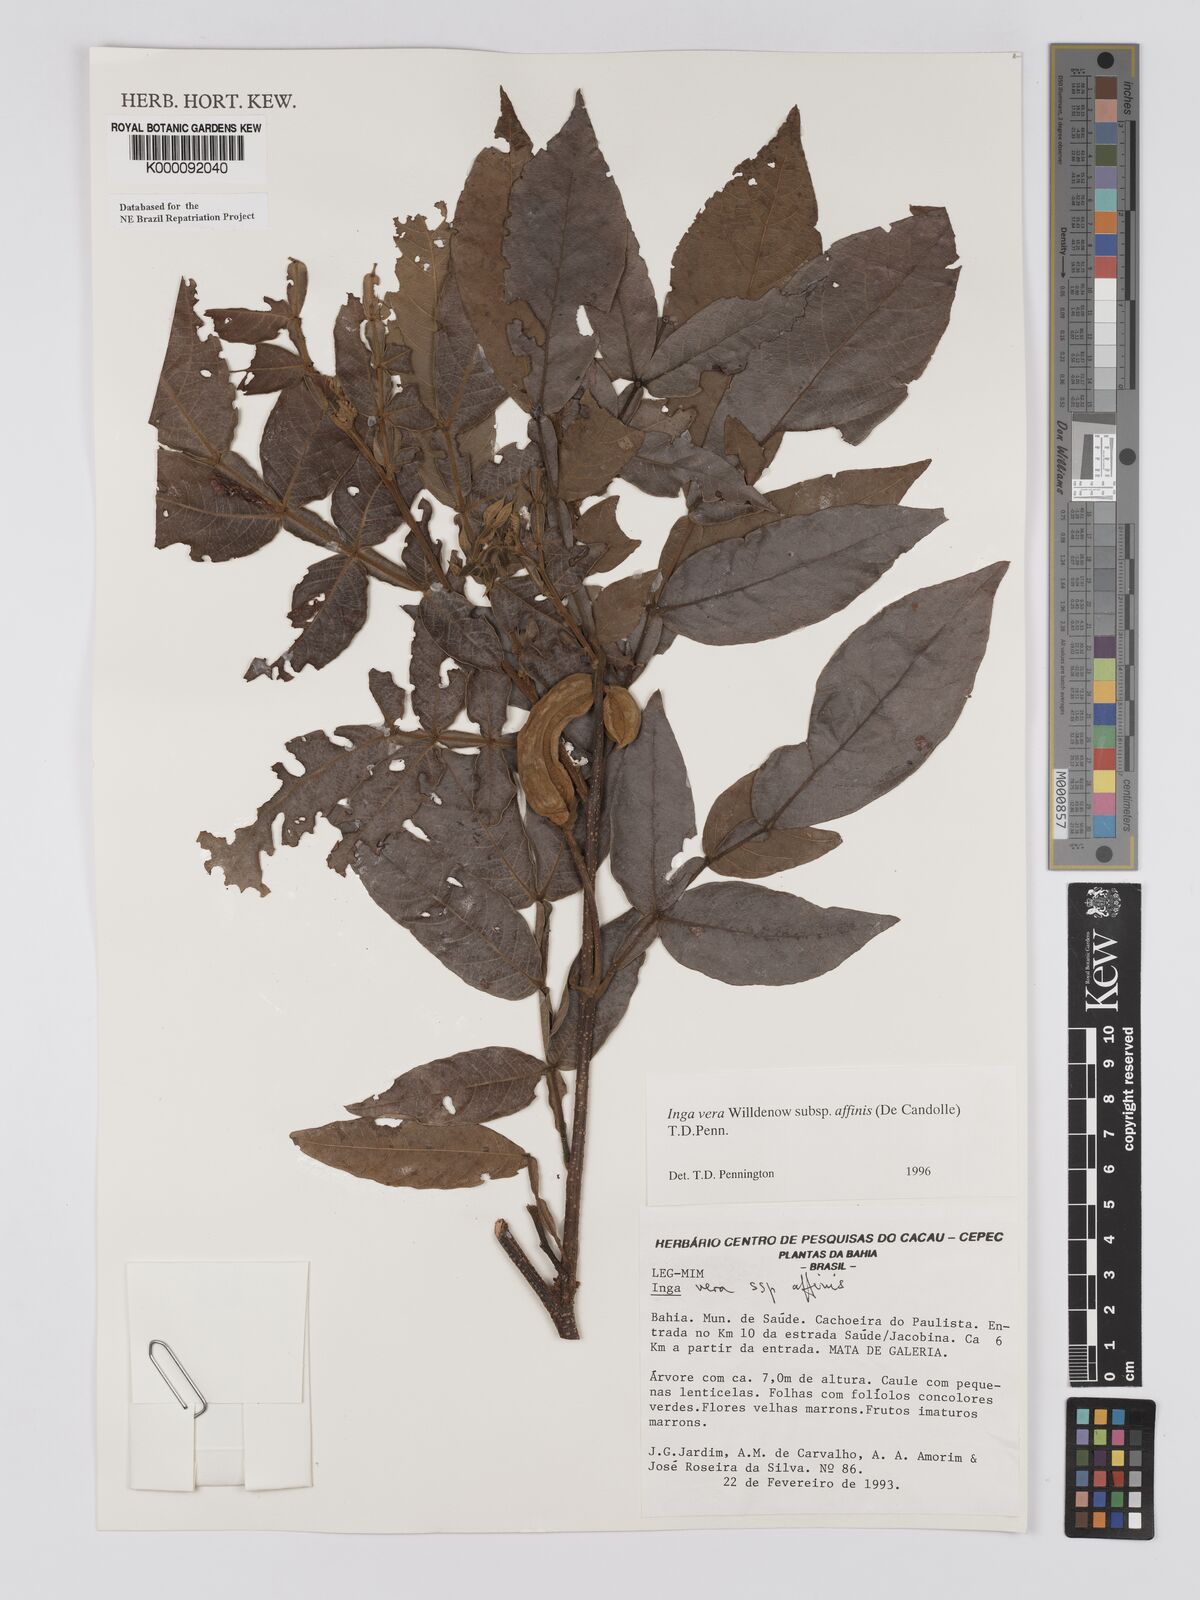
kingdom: Plantae
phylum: Tracheophyta
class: Magnoliopsida
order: Fabales
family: Fabaceae
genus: Inga
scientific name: Inga affinis
